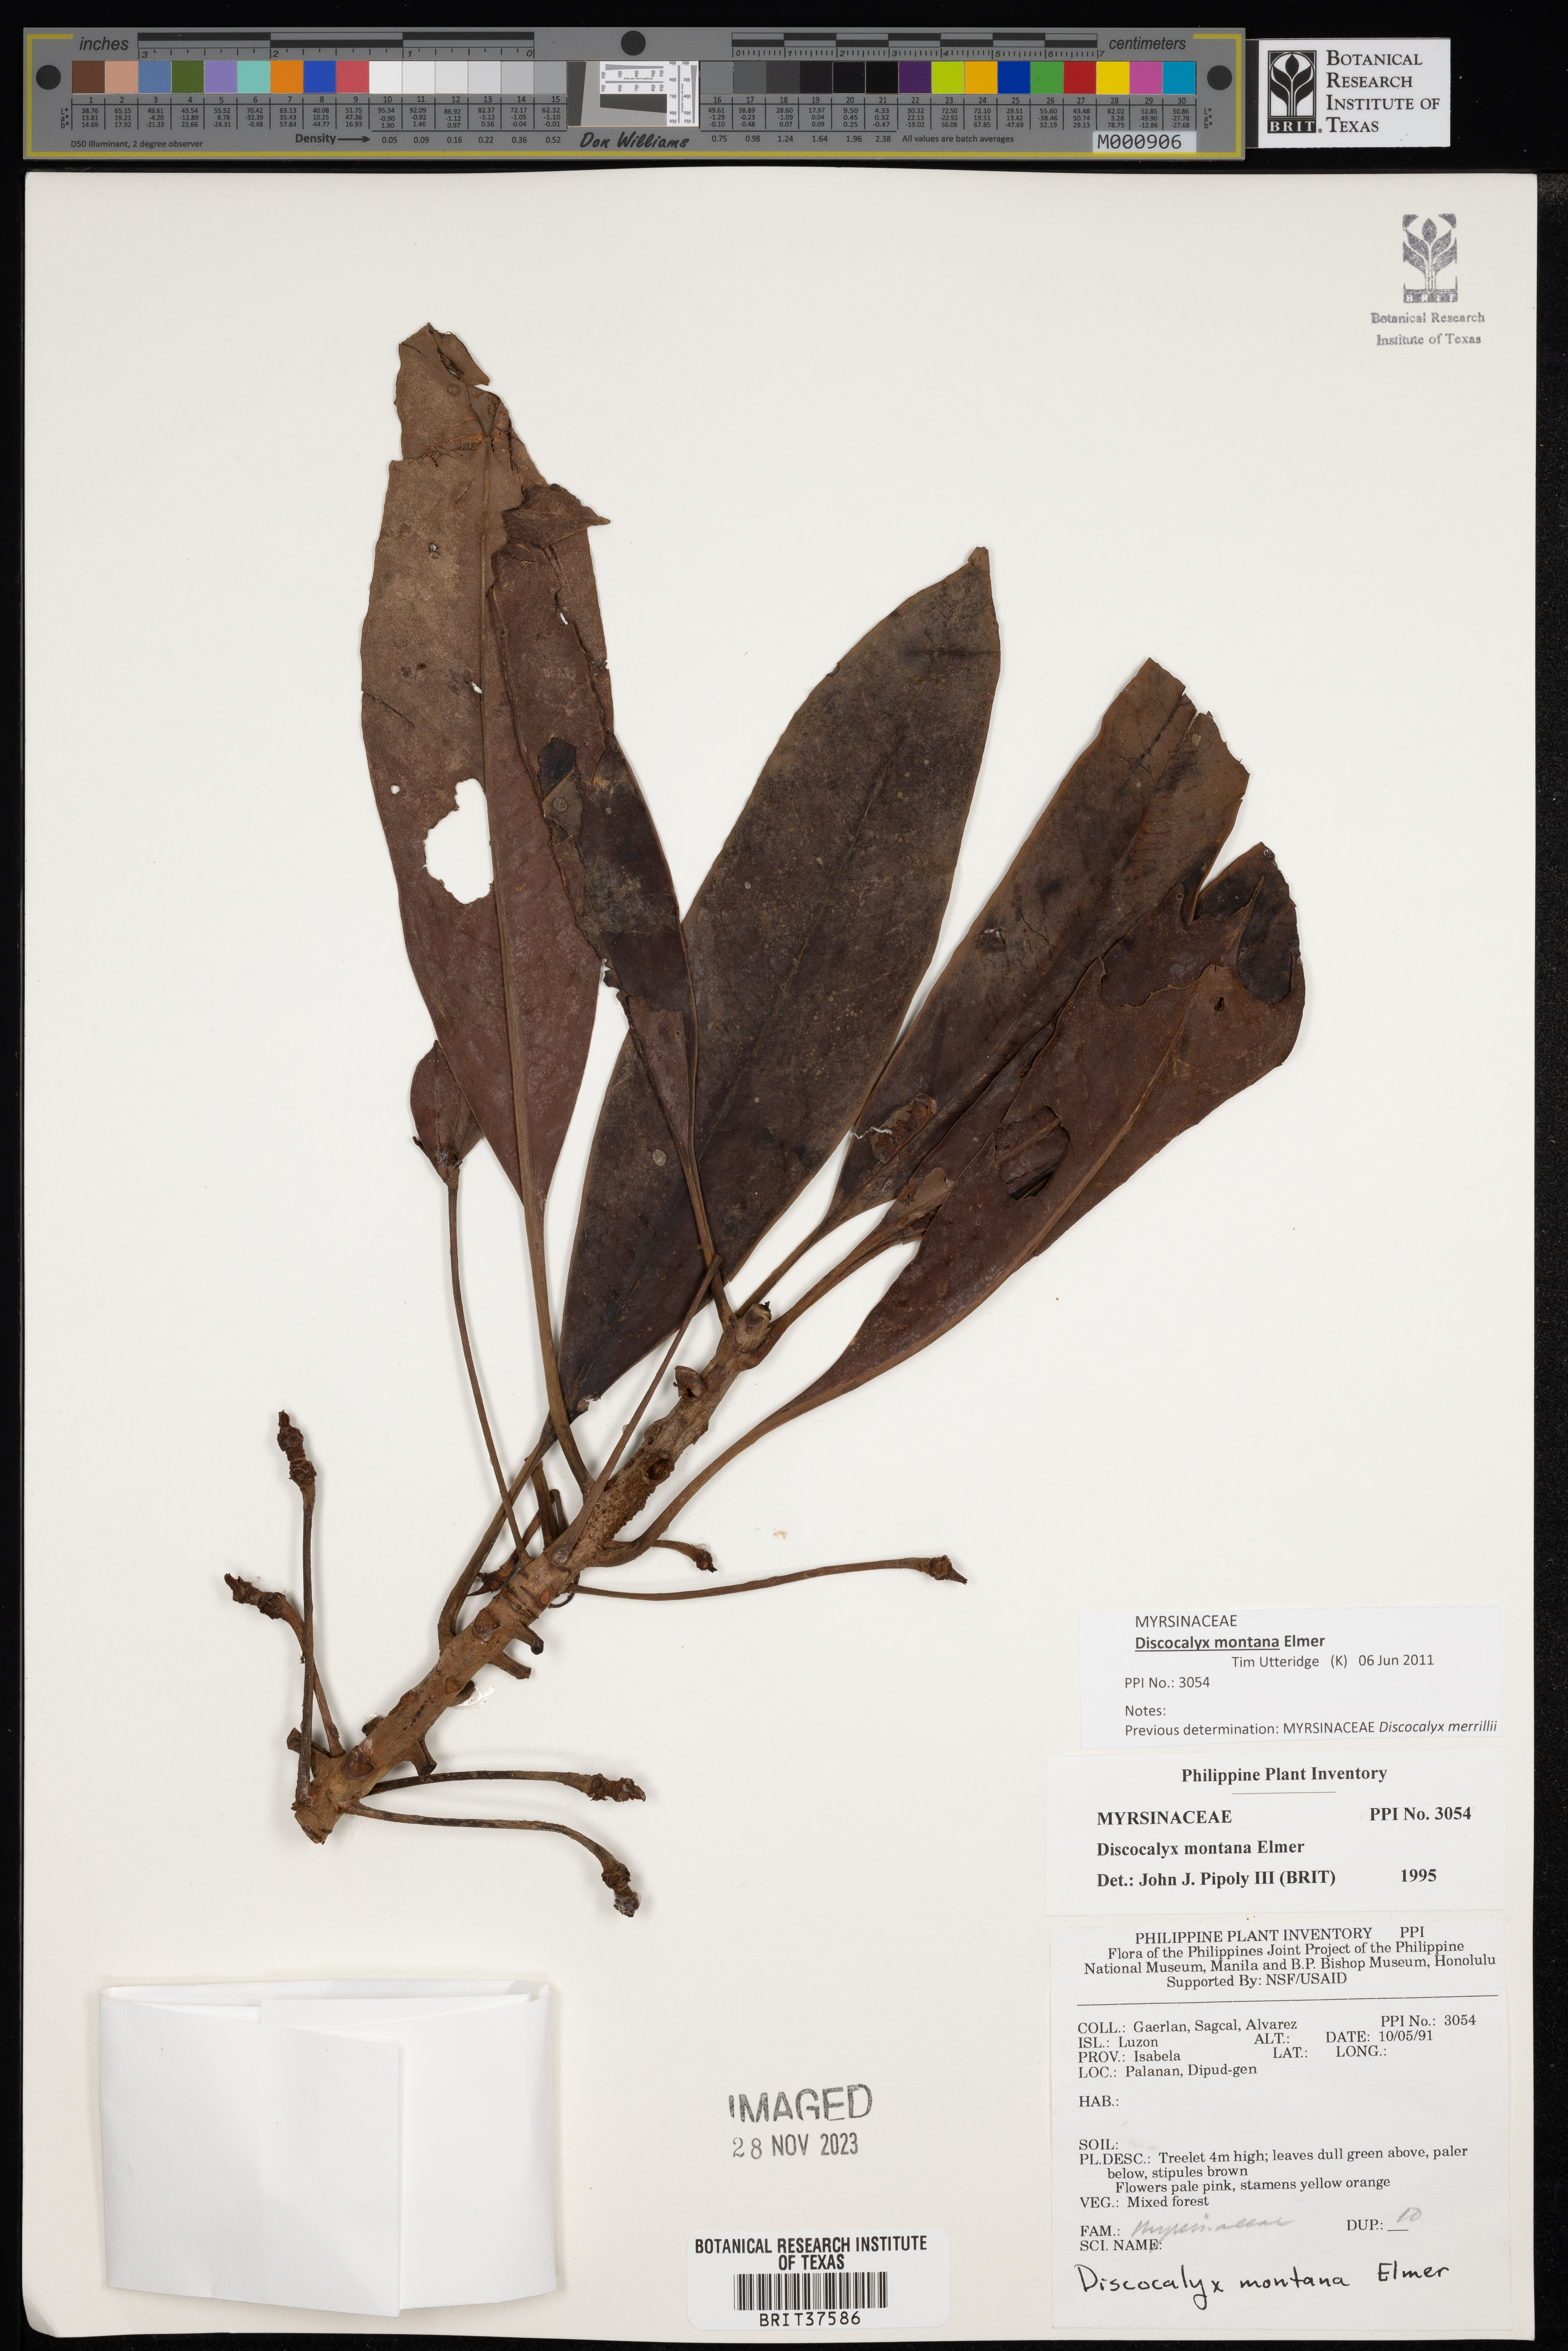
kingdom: Plantae
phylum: Tracheophyta
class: Magnoliopsida
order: Ericales
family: Primulaceae
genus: Discocalyx
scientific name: Discocalyx montana
